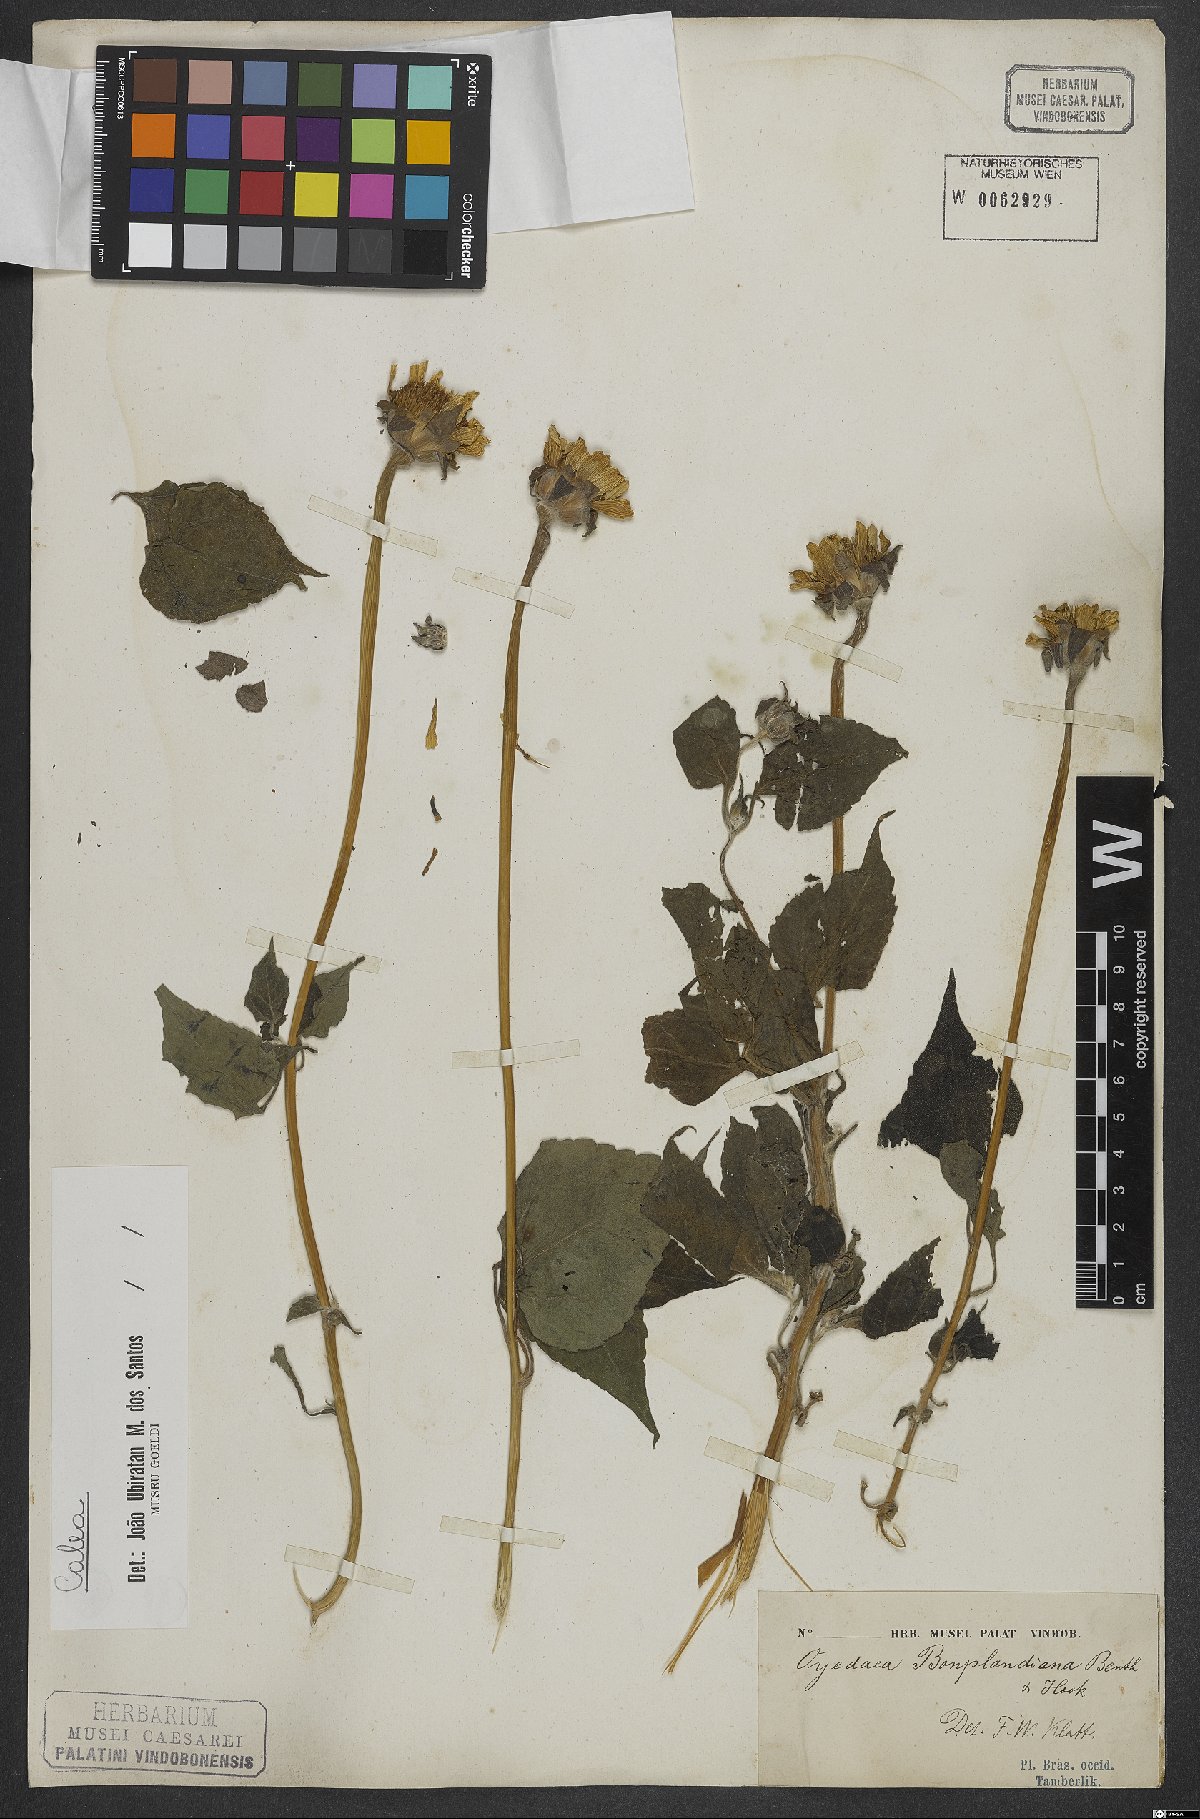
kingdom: Plantae
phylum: Tracheophyta
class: Magnoliopsida
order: Asterales
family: Asteraceae
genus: Calea
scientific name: Calea
